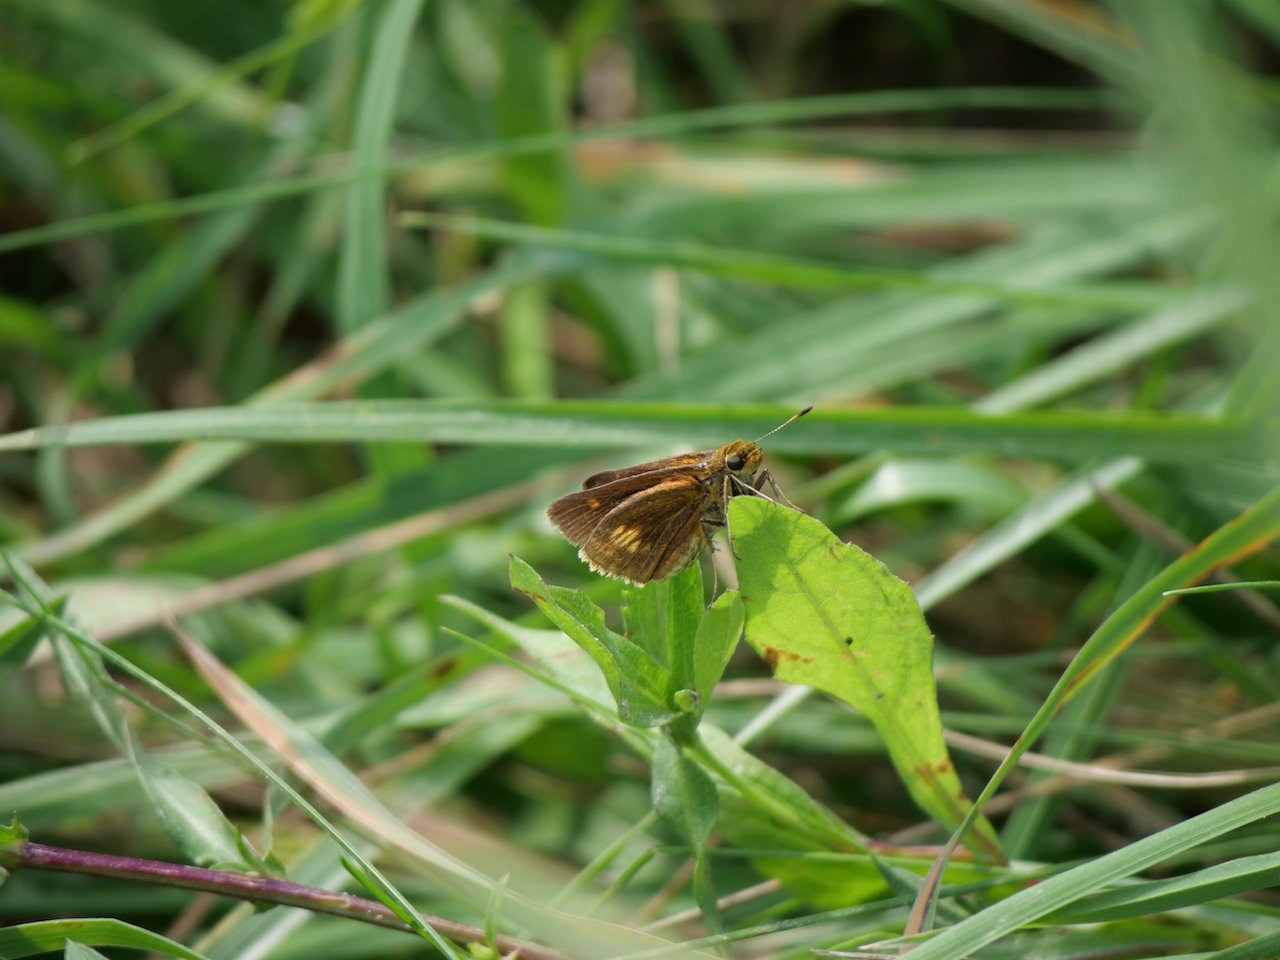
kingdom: Animalia
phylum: Arthropoda
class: Insecta
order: Lepidoptera
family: Hesperiidae
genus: Euphyes
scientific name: Euphyes conspicua
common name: Black Dash
